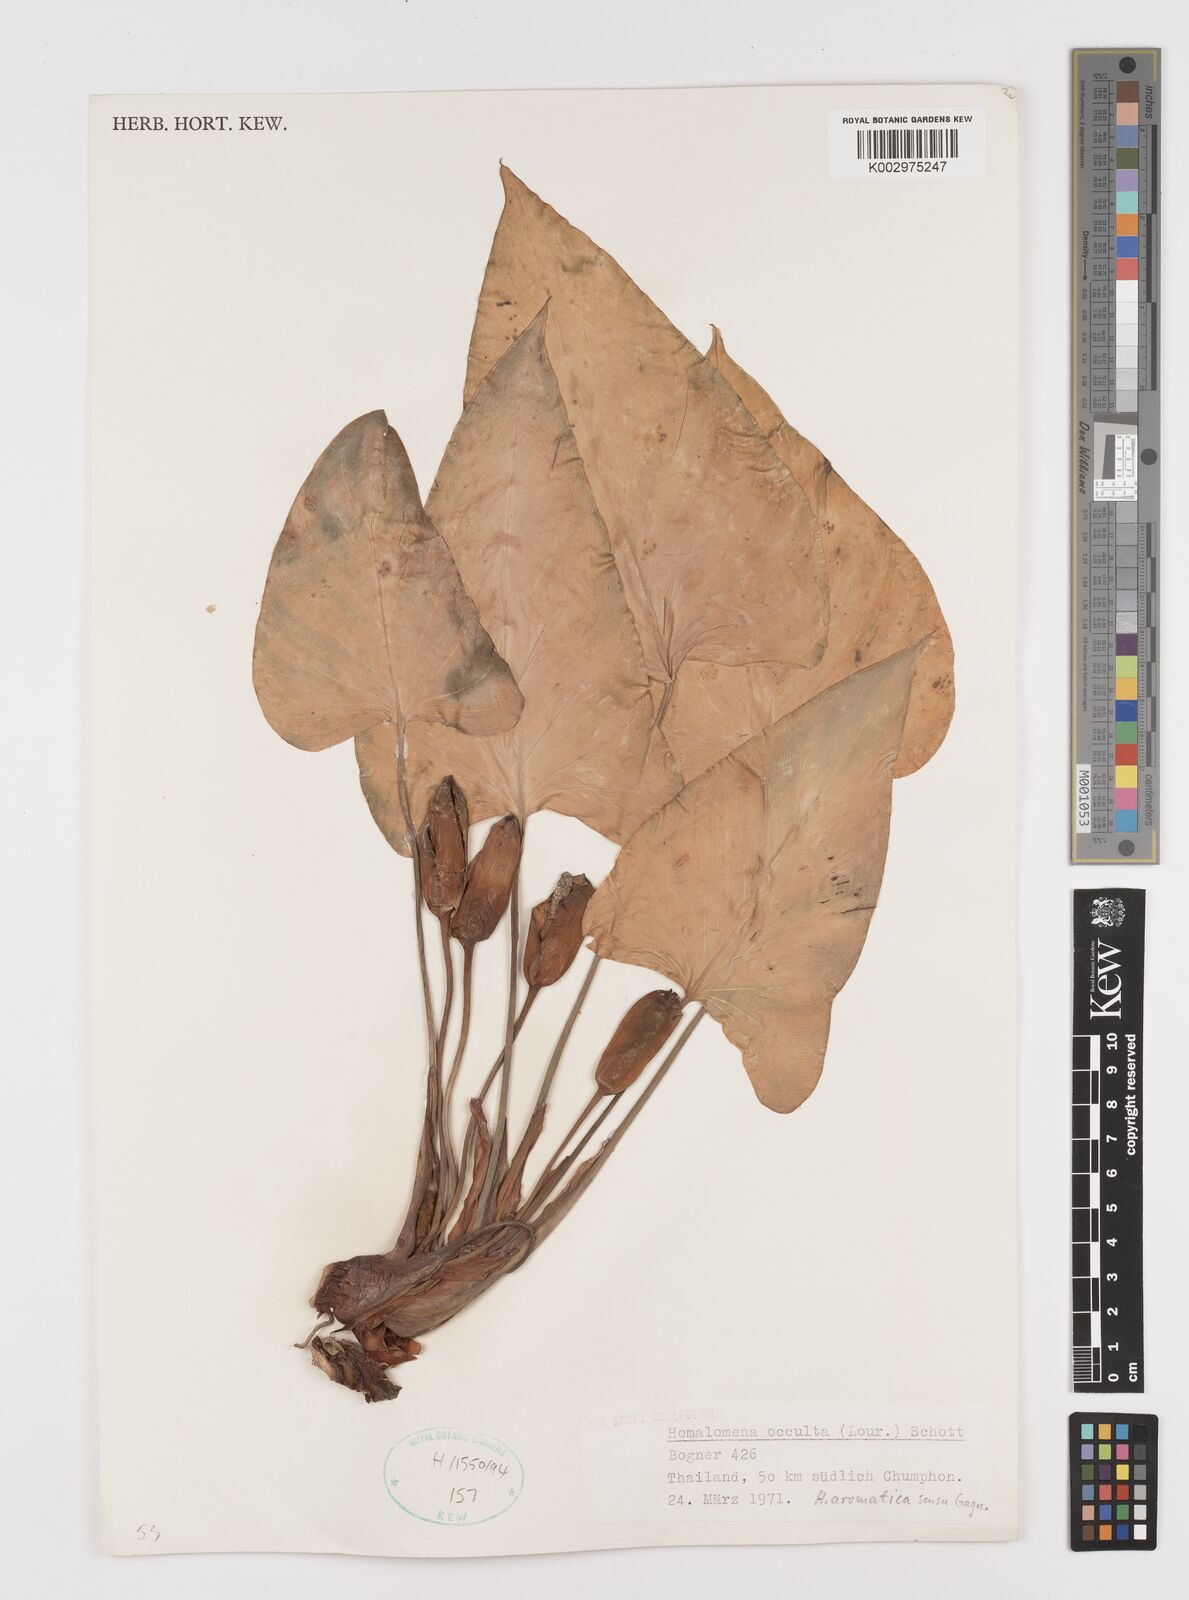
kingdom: Plantae
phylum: Tracheophyta
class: Liliopsida
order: Alismatales
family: Araceae
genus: Homalomena
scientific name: Homalomena occulta
